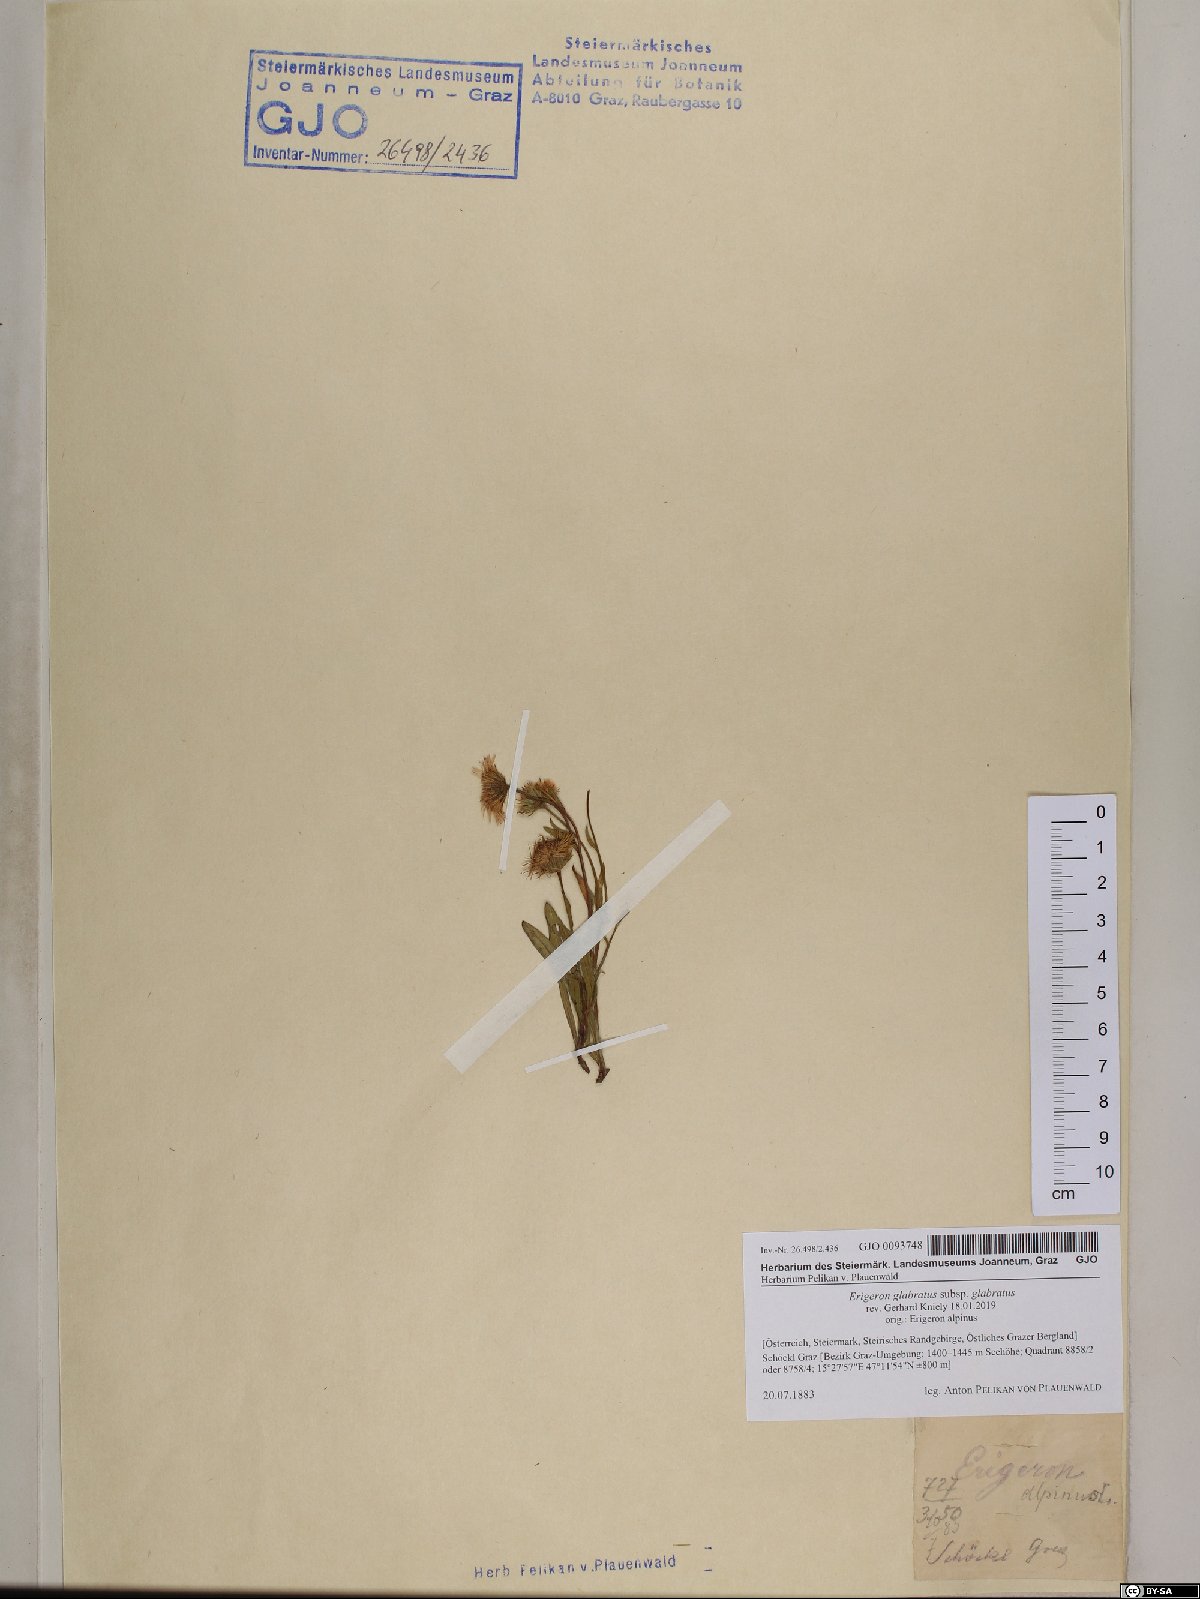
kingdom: Plantae
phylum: Tracheophyta
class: Magnoliopsida
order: Asterales
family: Asteraceae
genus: Erigeron
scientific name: Erigeron glabratus
